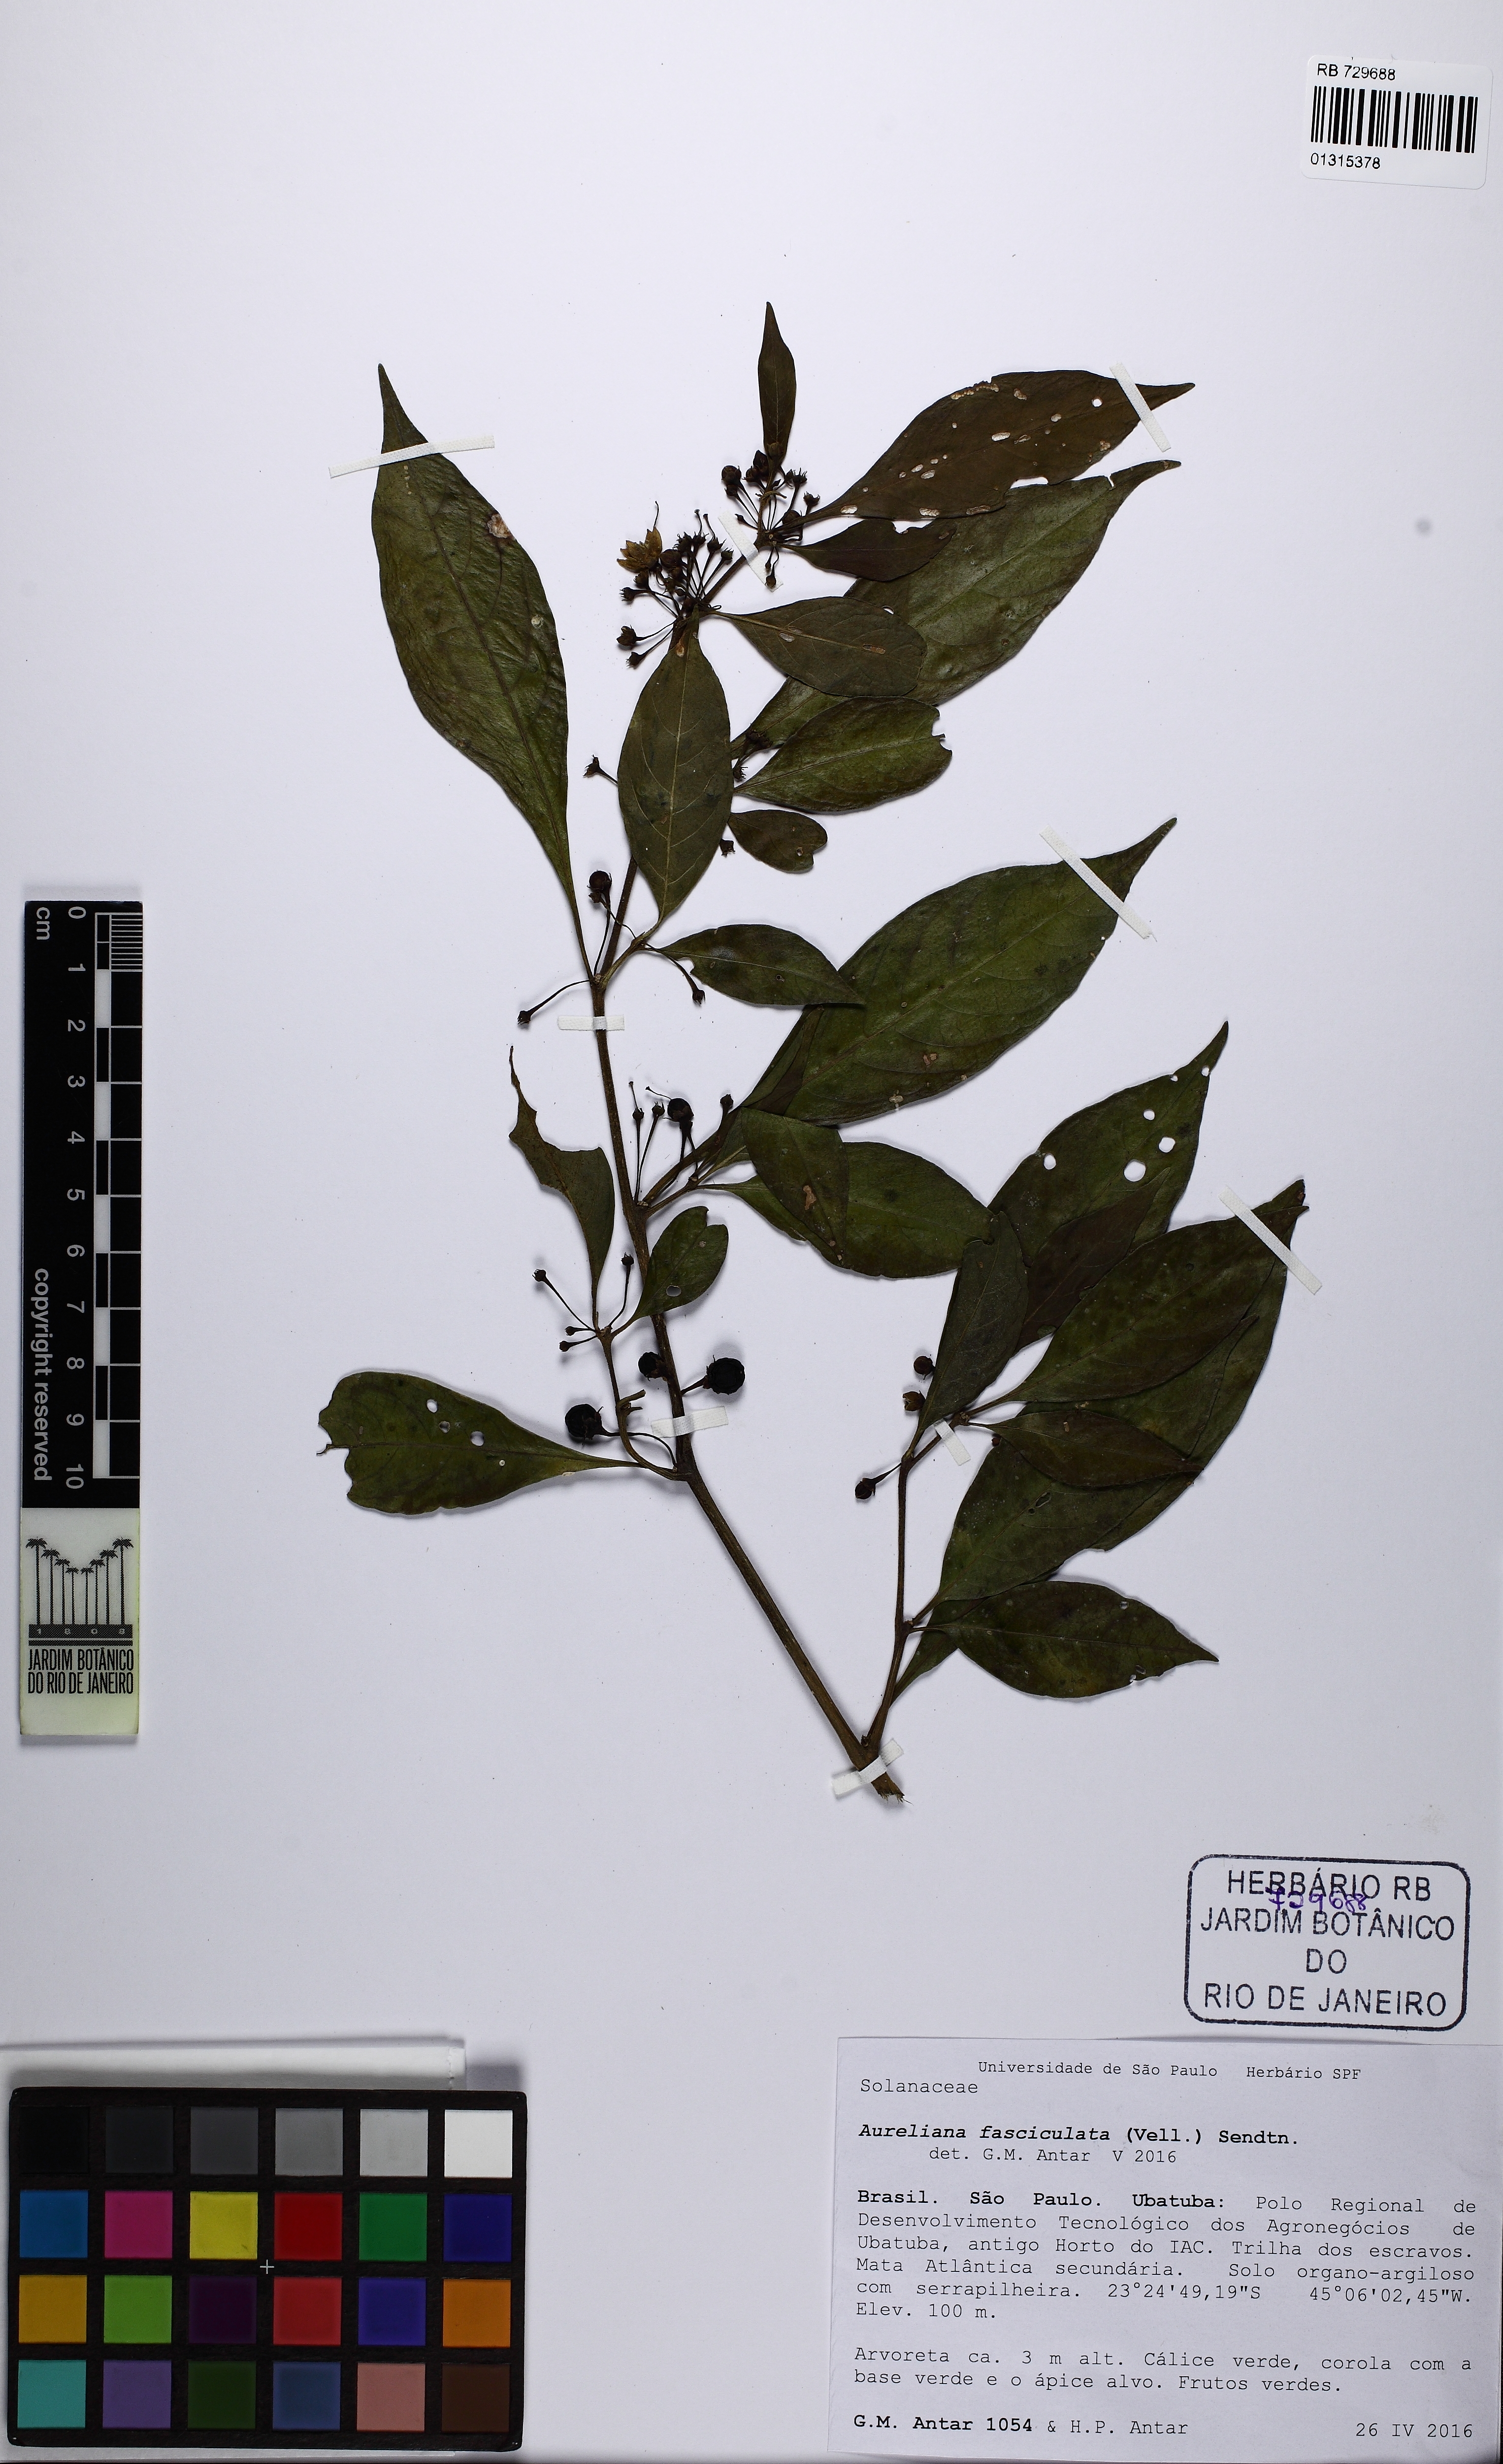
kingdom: Plantae
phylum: Tracheophyta
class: Magnoliopsida
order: Solanales
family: Solanaceae
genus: Athenaea
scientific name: Athenaea fasciculata
